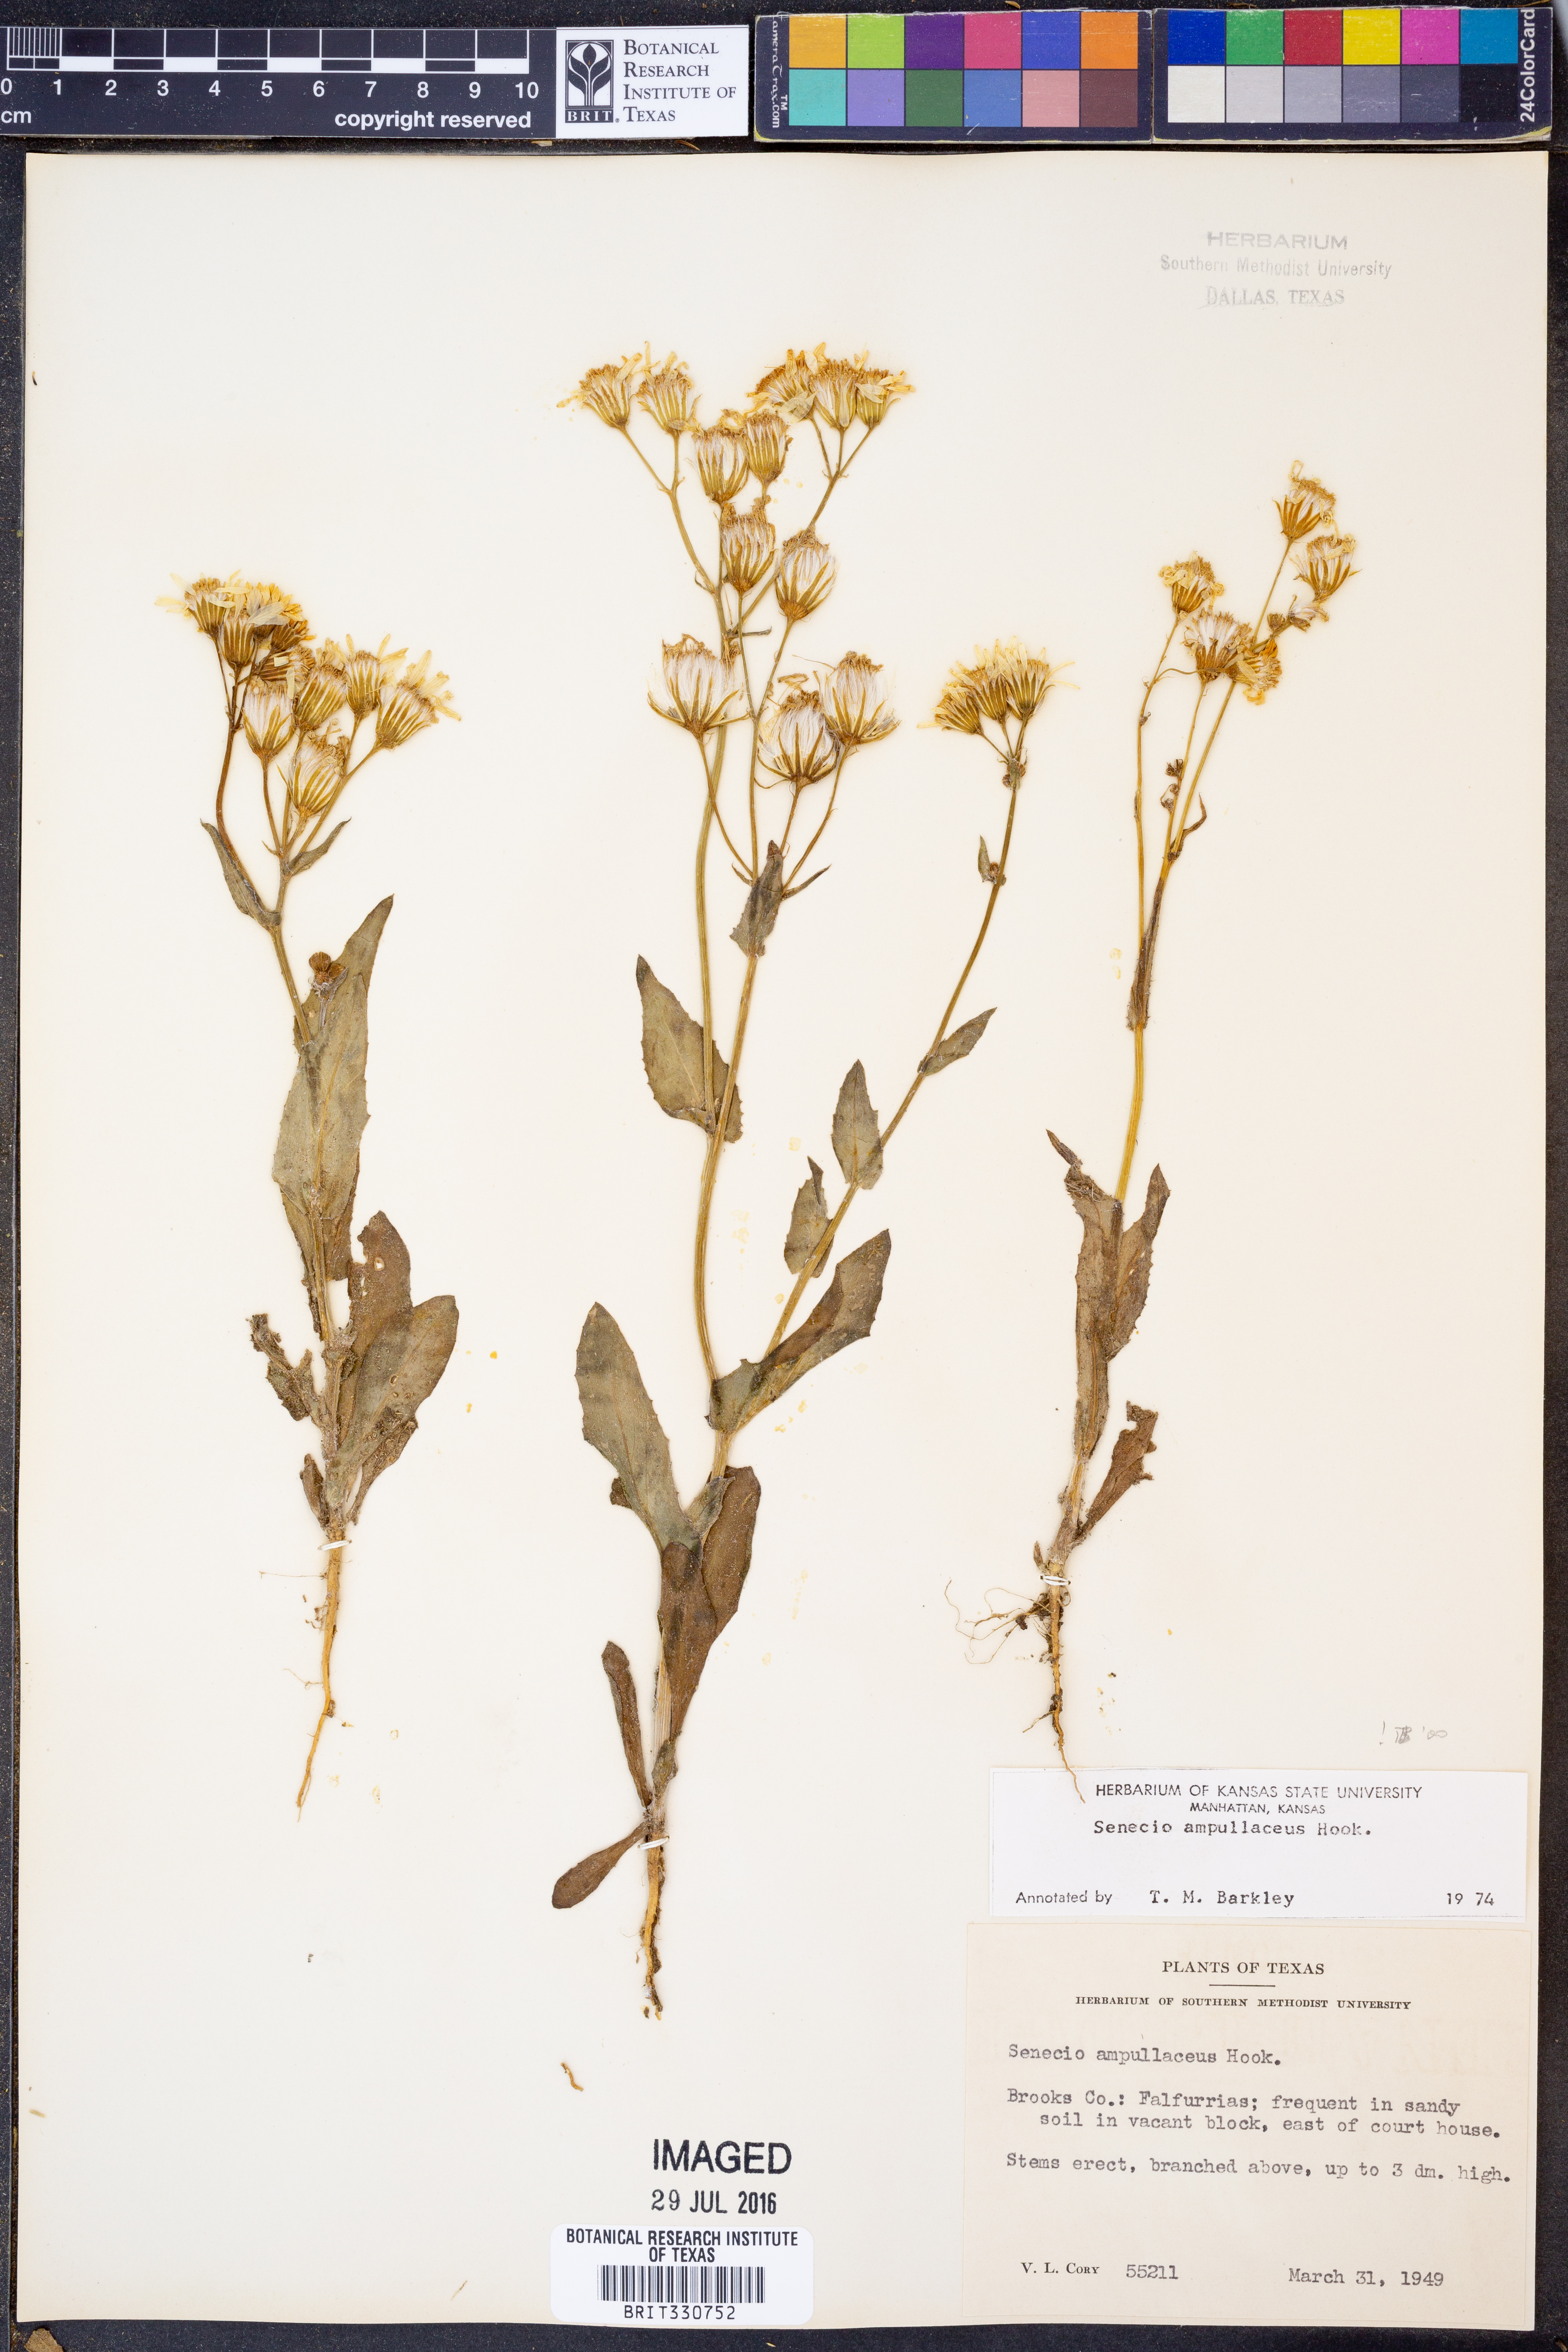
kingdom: Plantae
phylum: Tracheophyta
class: Magnoliopsida
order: Asterales
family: Asteraceae
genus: Senecio
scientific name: Senecio ampullaceus
